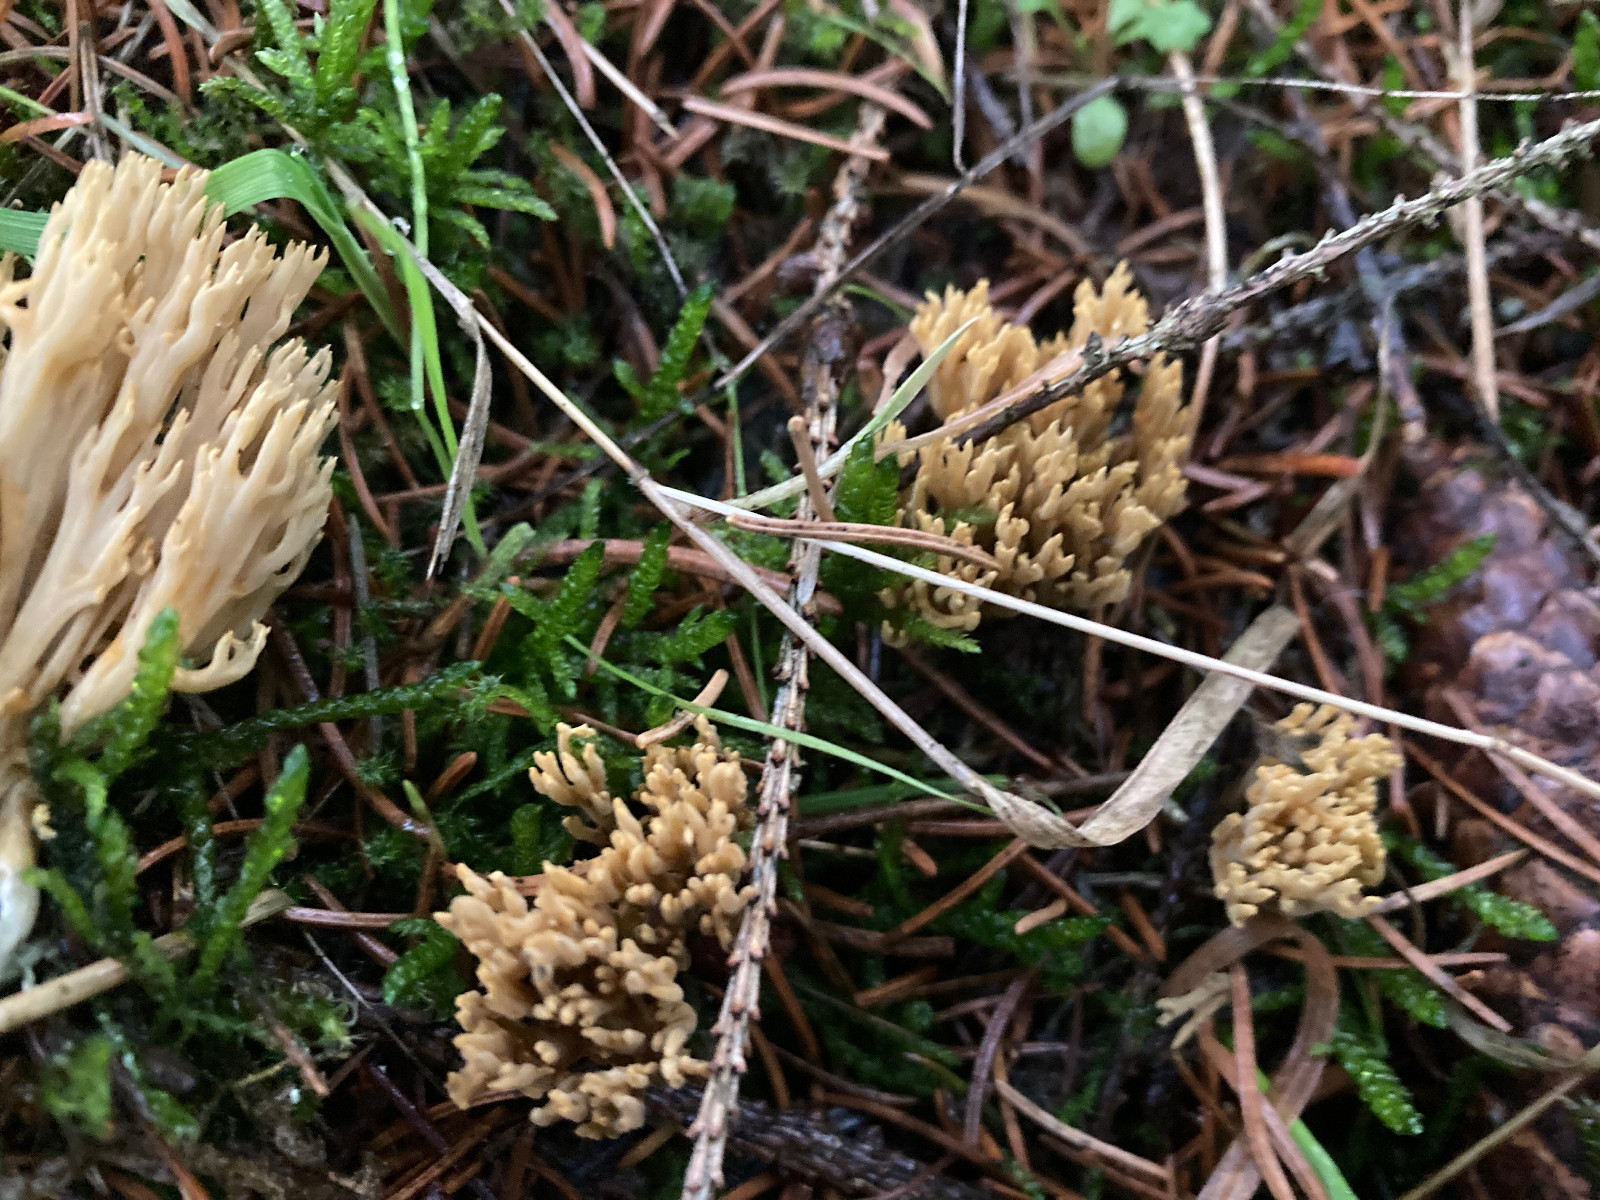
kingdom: Fungi
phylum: Basidiomycota
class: Agaricomycetes
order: Gomphales
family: Gomphaceae
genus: Phaeoclavulina
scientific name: Phaeoclavulina eumorpha
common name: gran-koralsvamp
